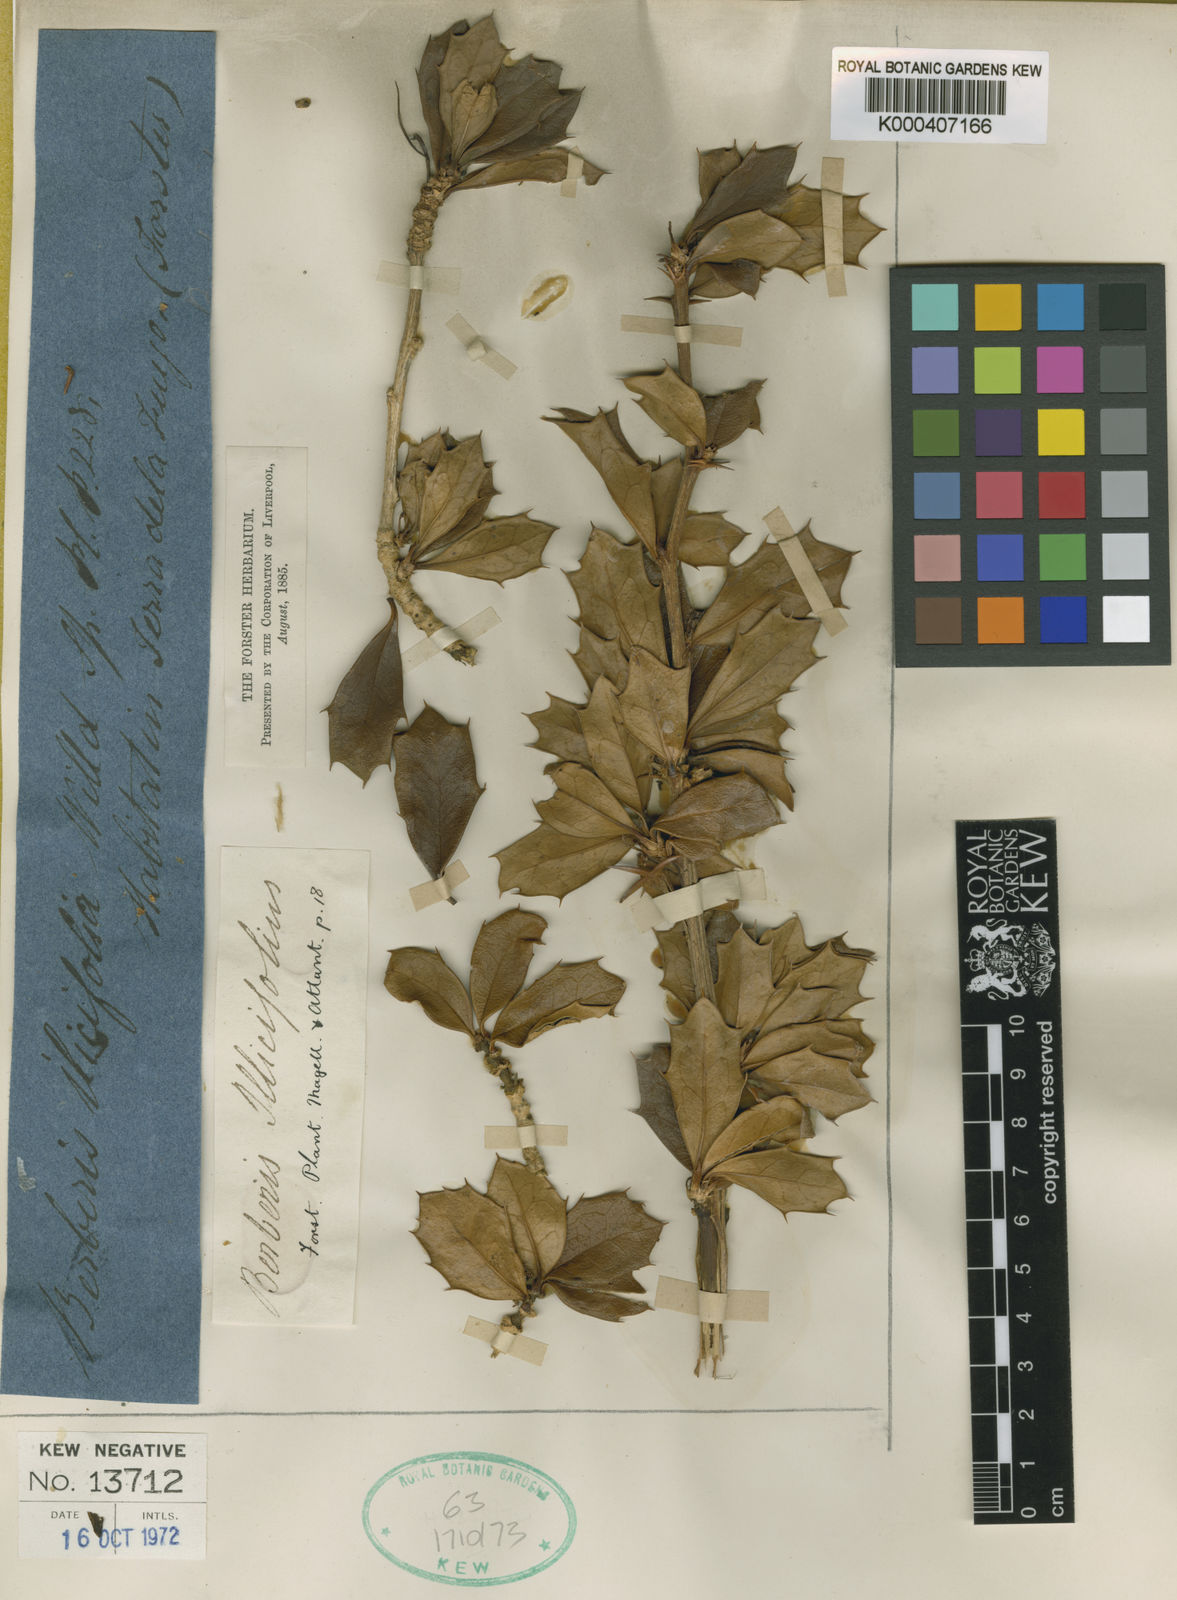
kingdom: Plantae
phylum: Tracheophyta
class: Magnoliopsida
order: Ranunculales
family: Berberidaceae
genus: Berberis
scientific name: Berberis ilicifolia
